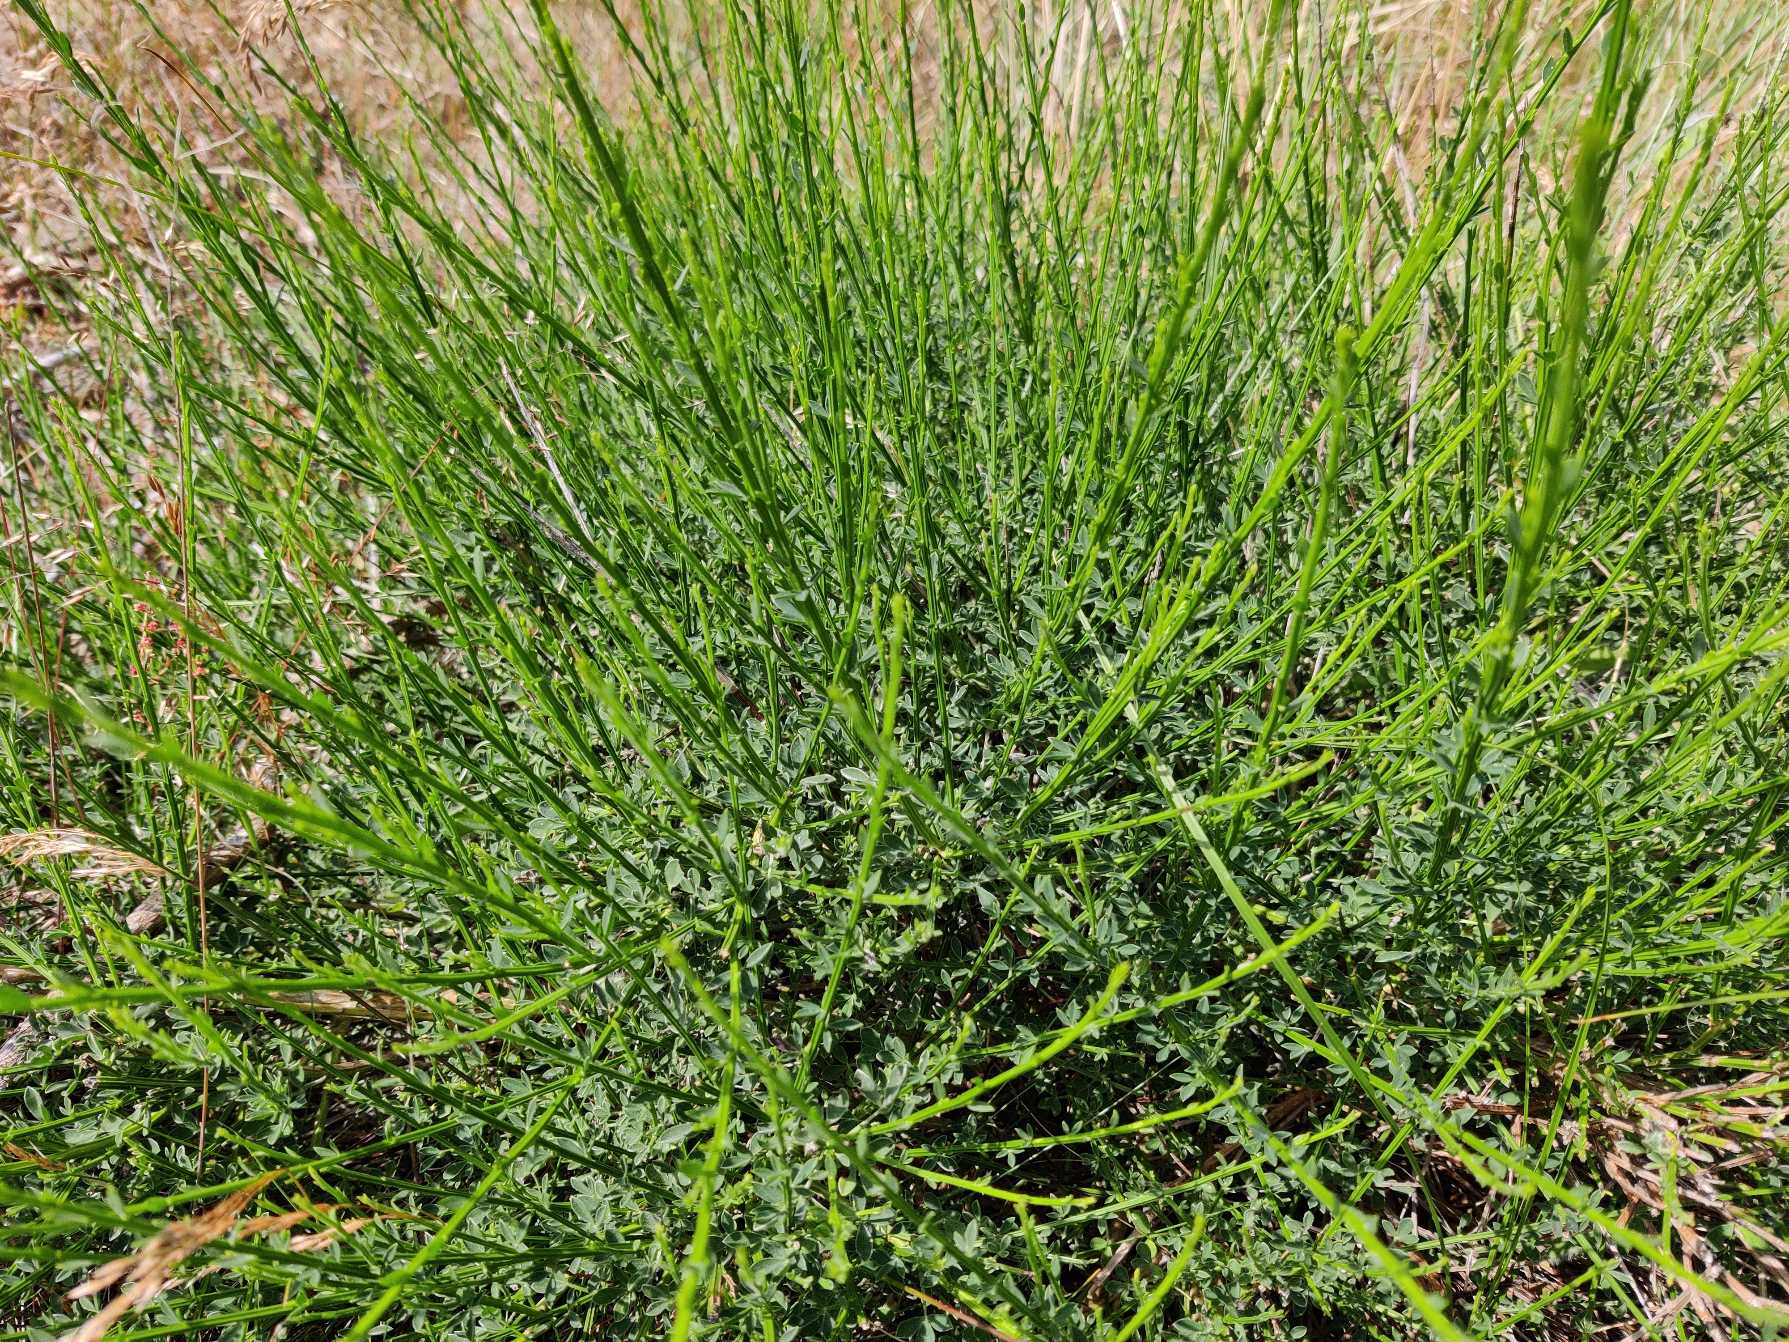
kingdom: Plantae
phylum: Tracheophyta
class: Magnoliopsida
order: Fabales
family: Fabaceae
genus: Cytisus
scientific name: Cytisus scoparius
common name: Almindelig gyvel
